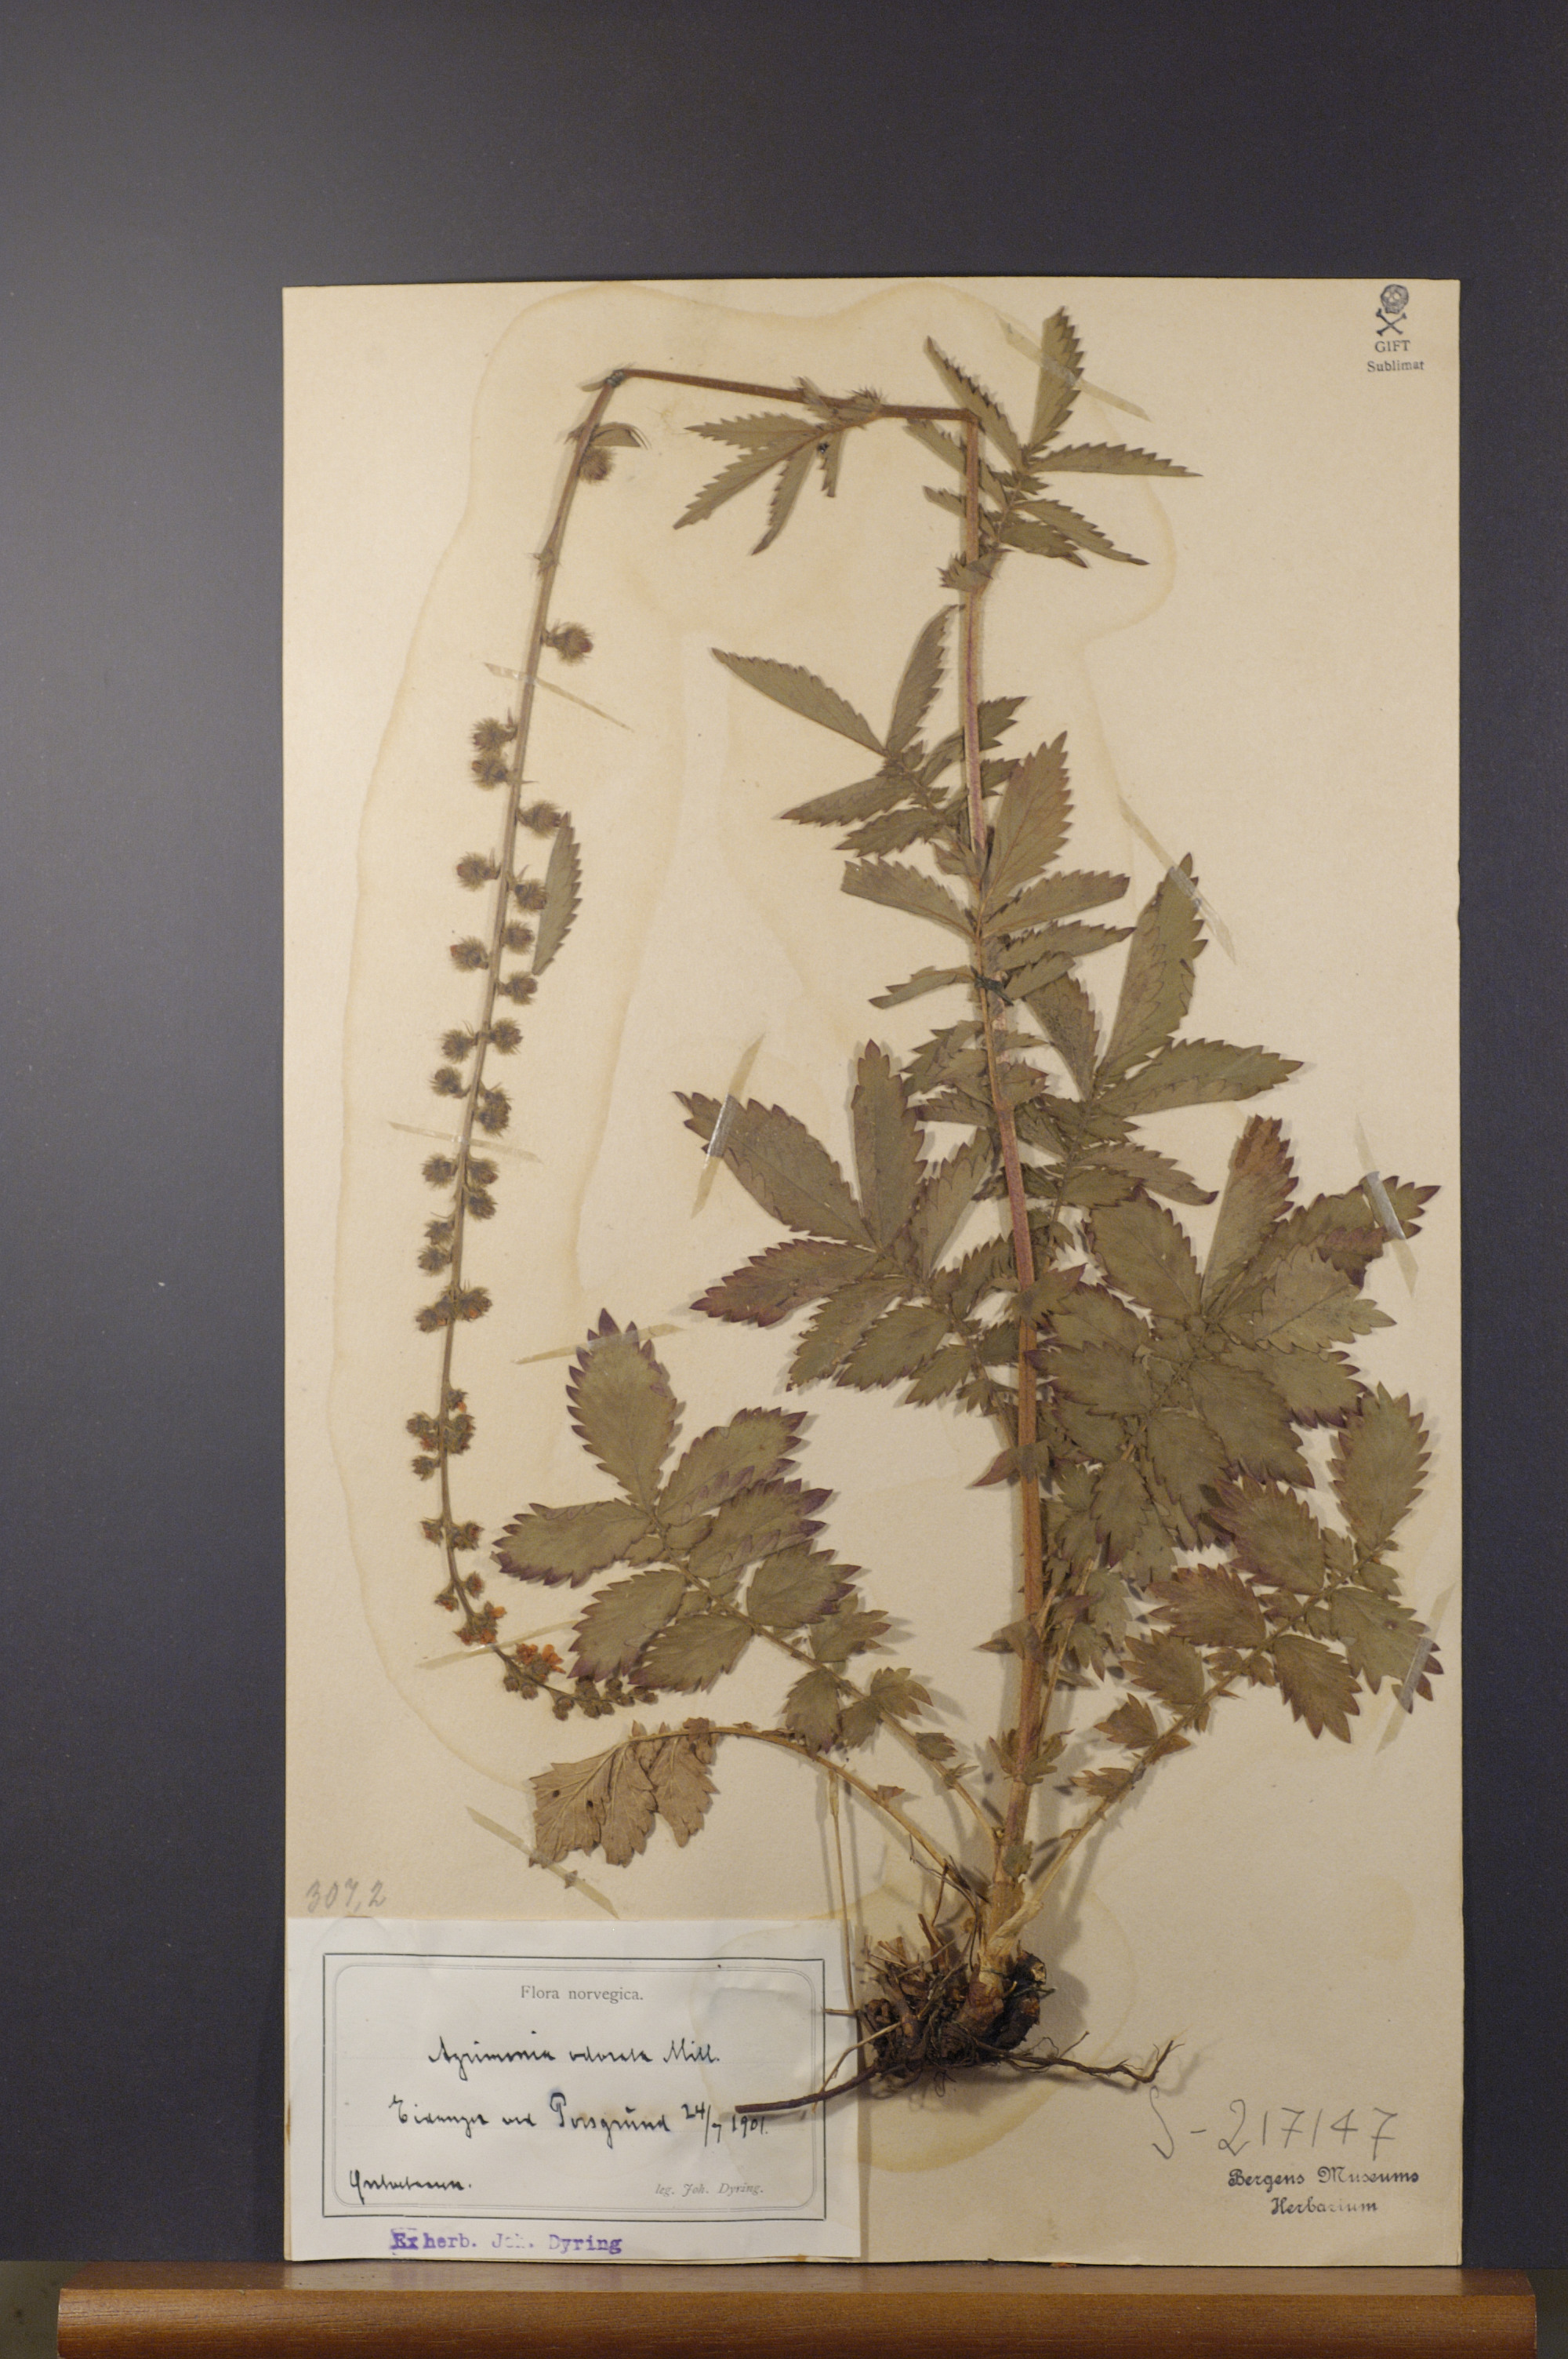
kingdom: Plantae
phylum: Tracheophyta
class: Magnoliopsida
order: Rosales
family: Rosaceae
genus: Agrimonia
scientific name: Agrimonia procera
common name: Fragrant agrimony
